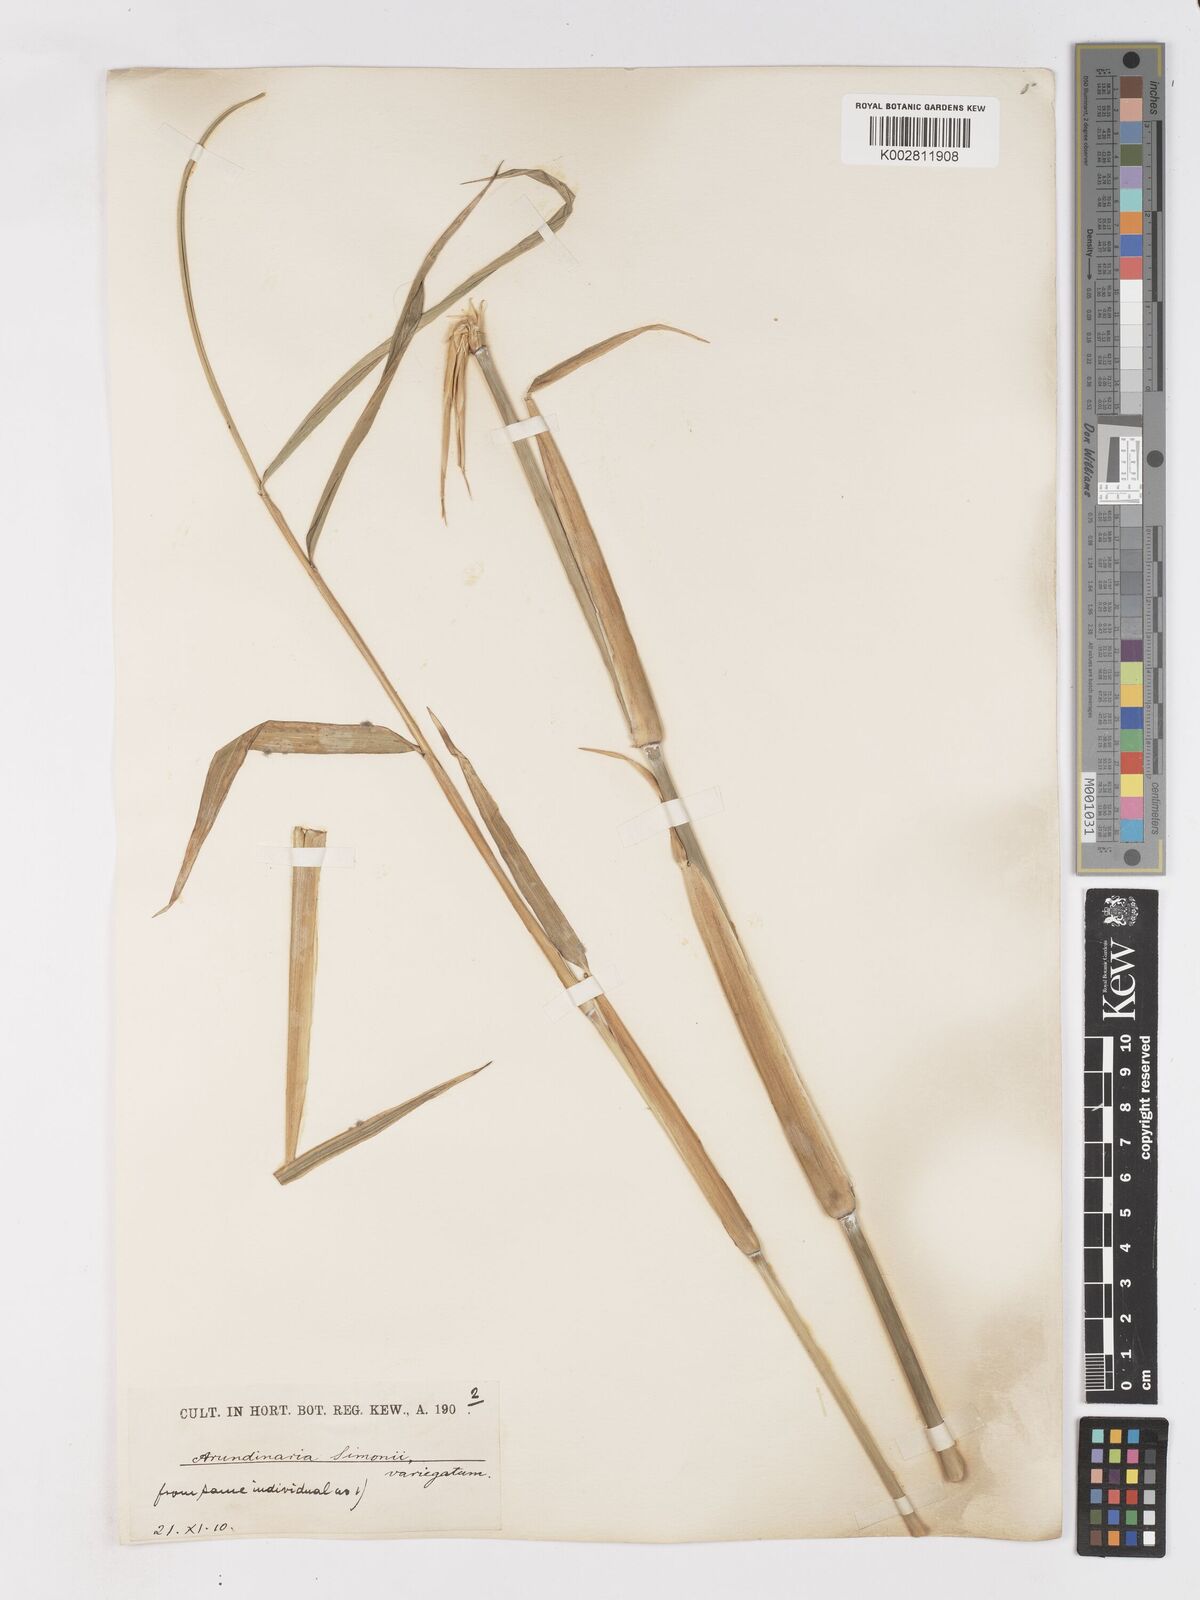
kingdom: Plantae
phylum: Tracheophyta
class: Liliopsida
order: Poales
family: Poaceae
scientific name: Poaceae
